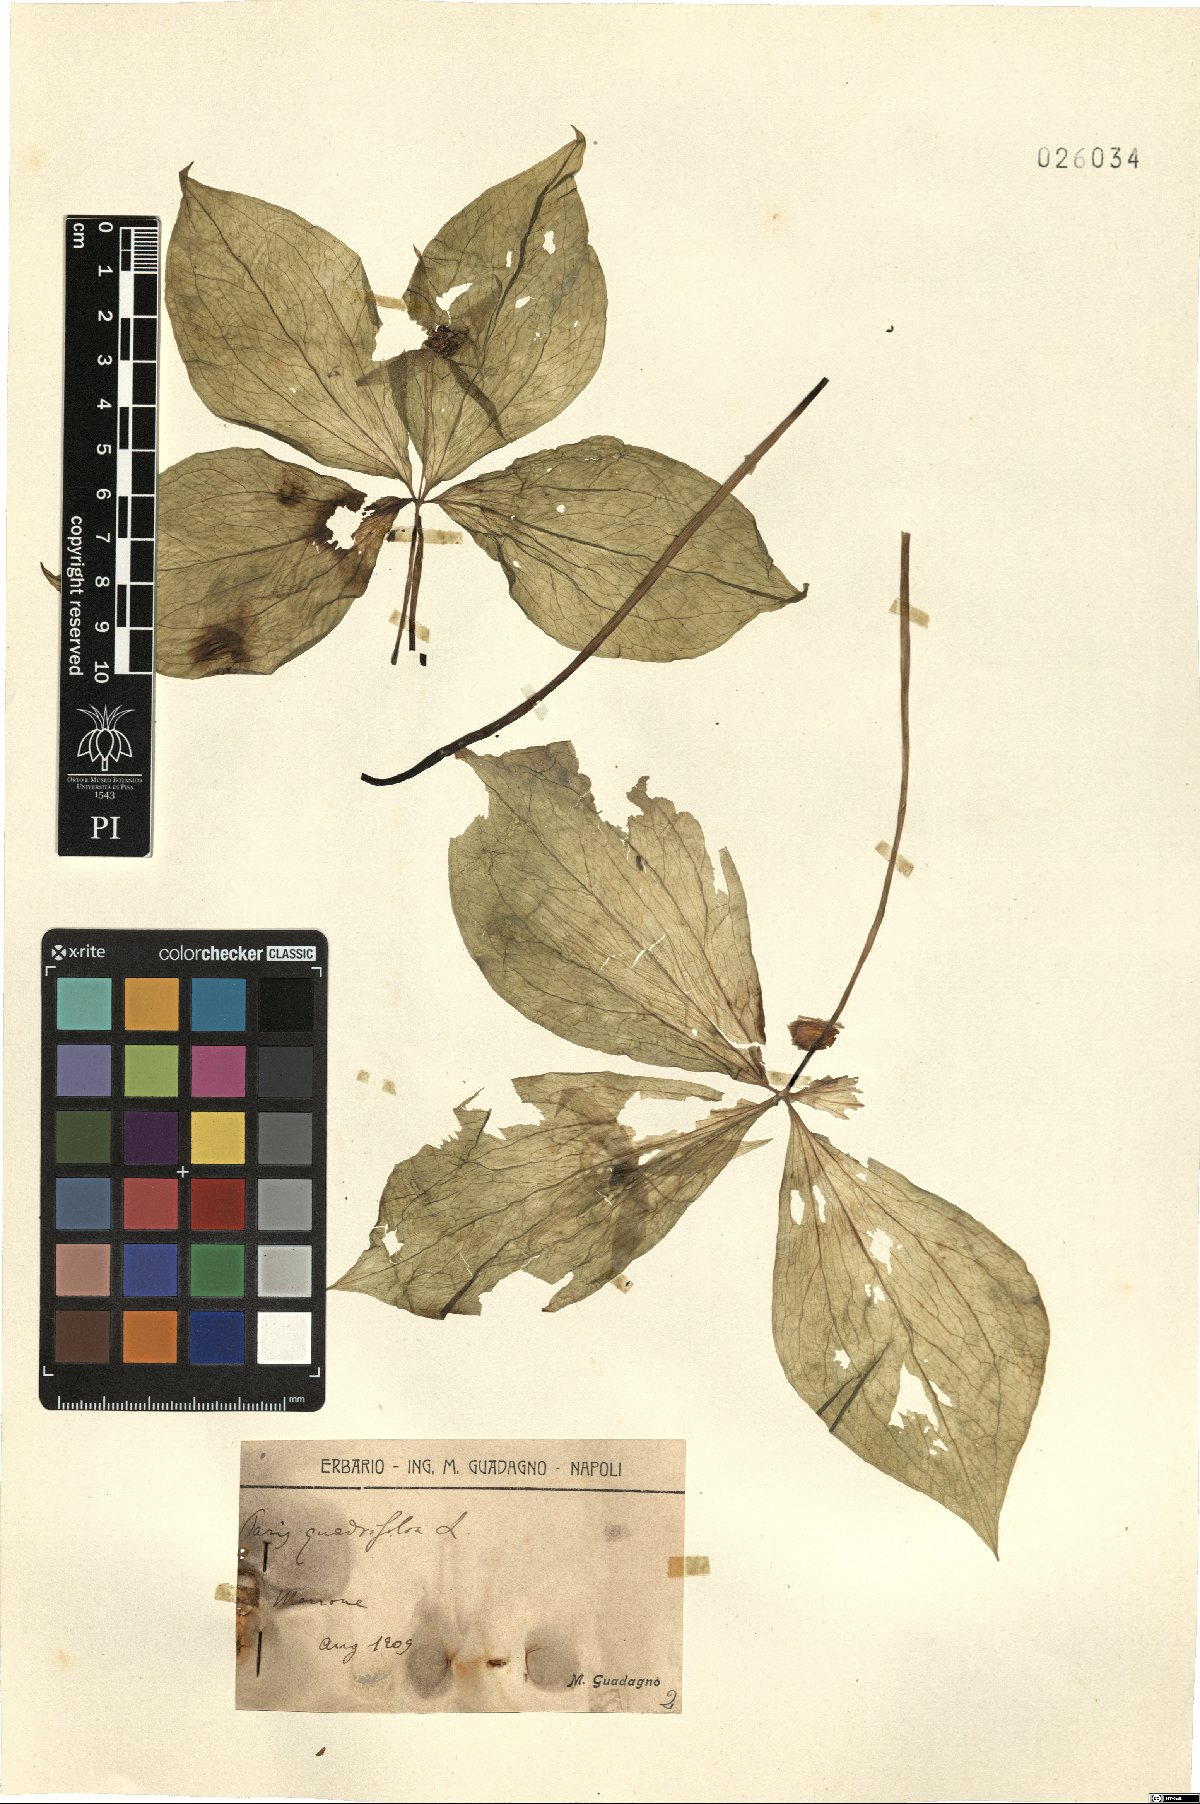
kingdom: Plantae
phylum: Tracheophyta
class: Liliopsida
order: Liliales
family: Melanthiaceae
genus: Paris
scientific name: Paris quadrifolia
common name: Herb-paris
